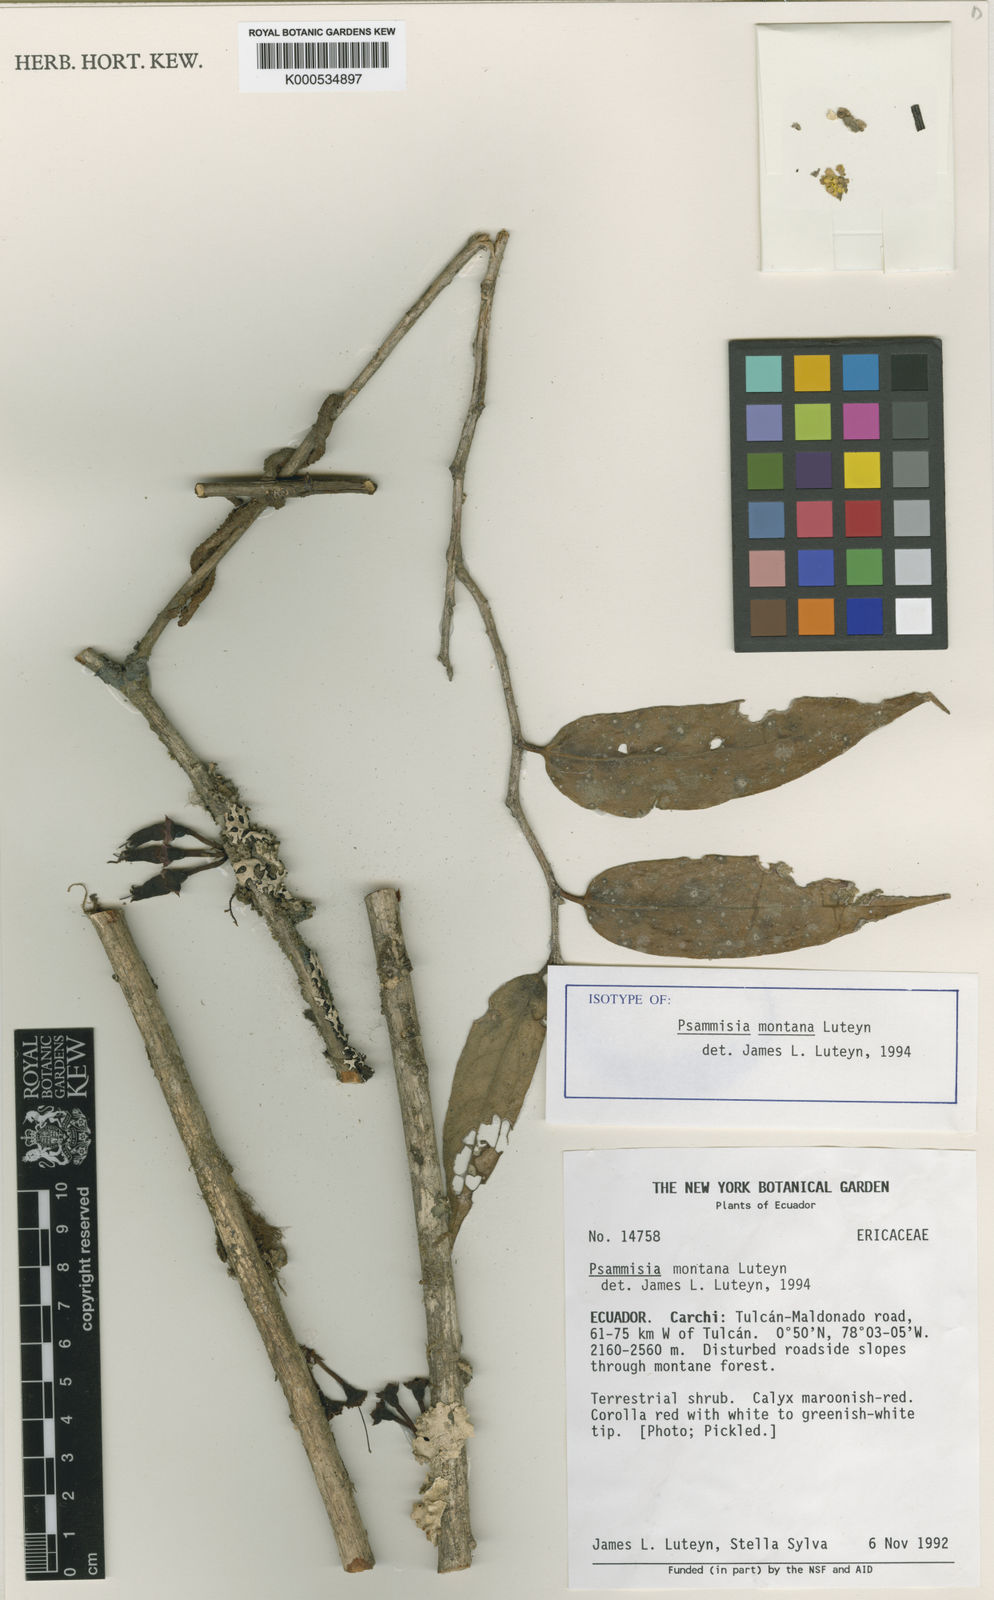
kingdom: Plantae
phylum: Tracheophyta
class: Magnoliopsida
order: Ericales
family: Ericaceae
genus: Psammisia
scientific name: Psammisia montana
